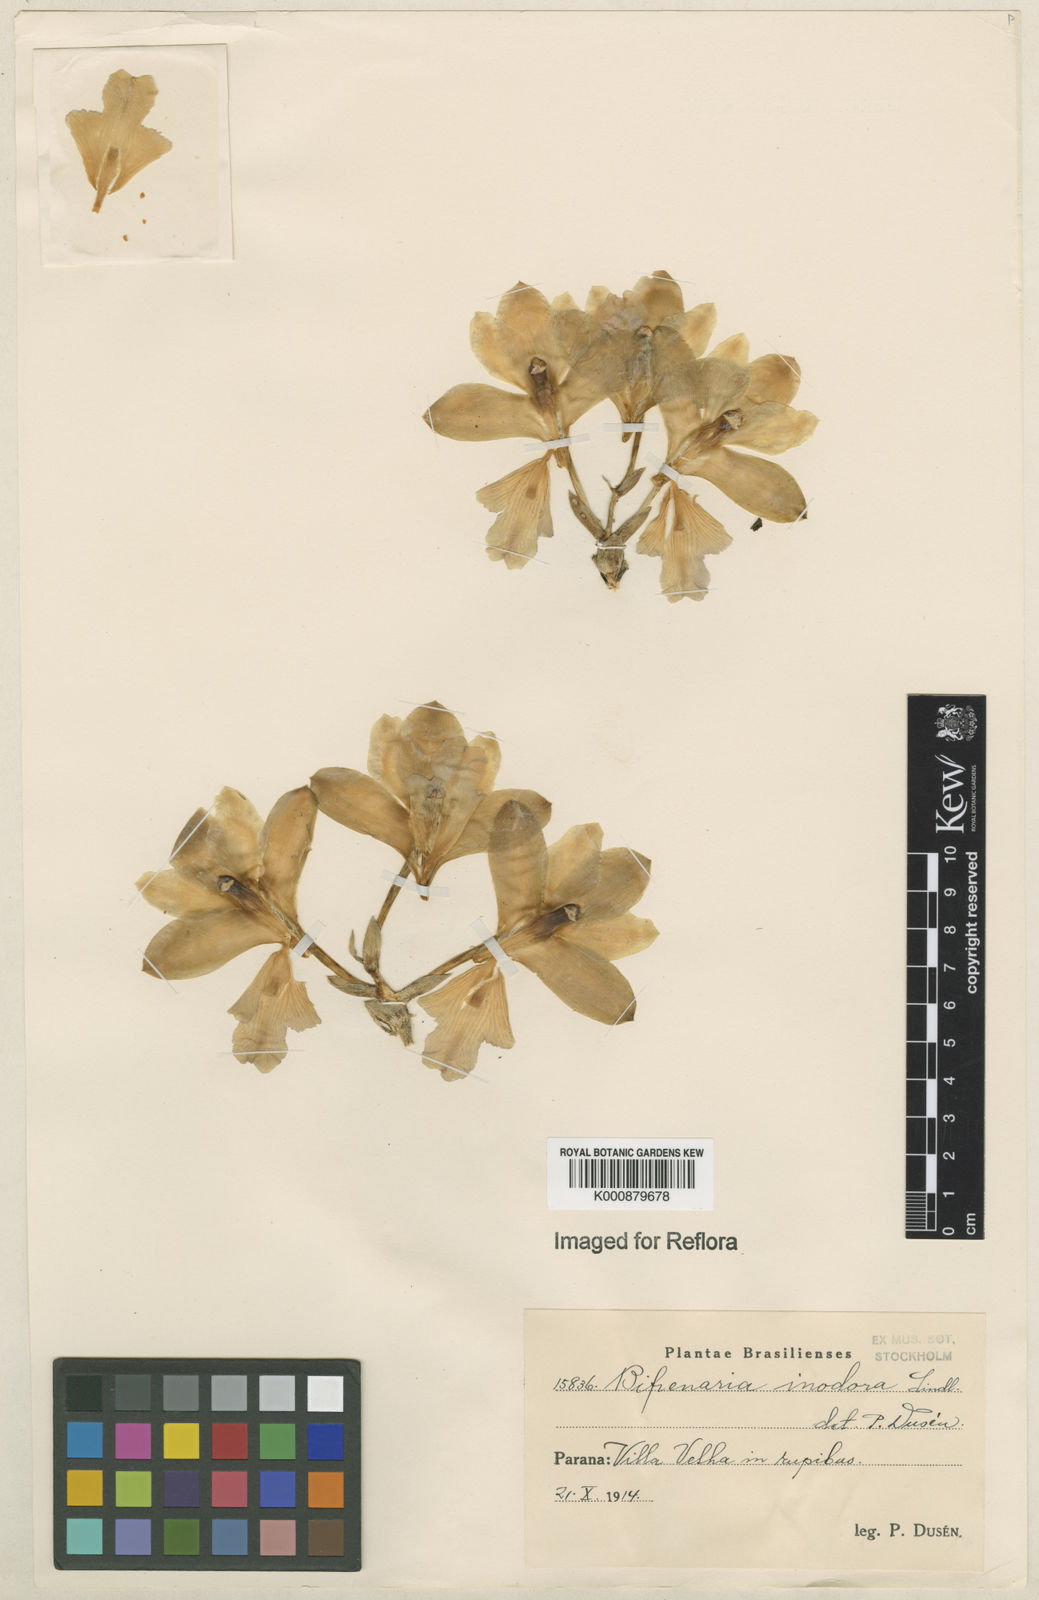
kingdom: Plantae
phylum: Tracheophyta
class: Liliopsida
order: Asparagales
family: Orchidaceae
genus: Bifrenaria
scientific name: Bifrenaria inodora
